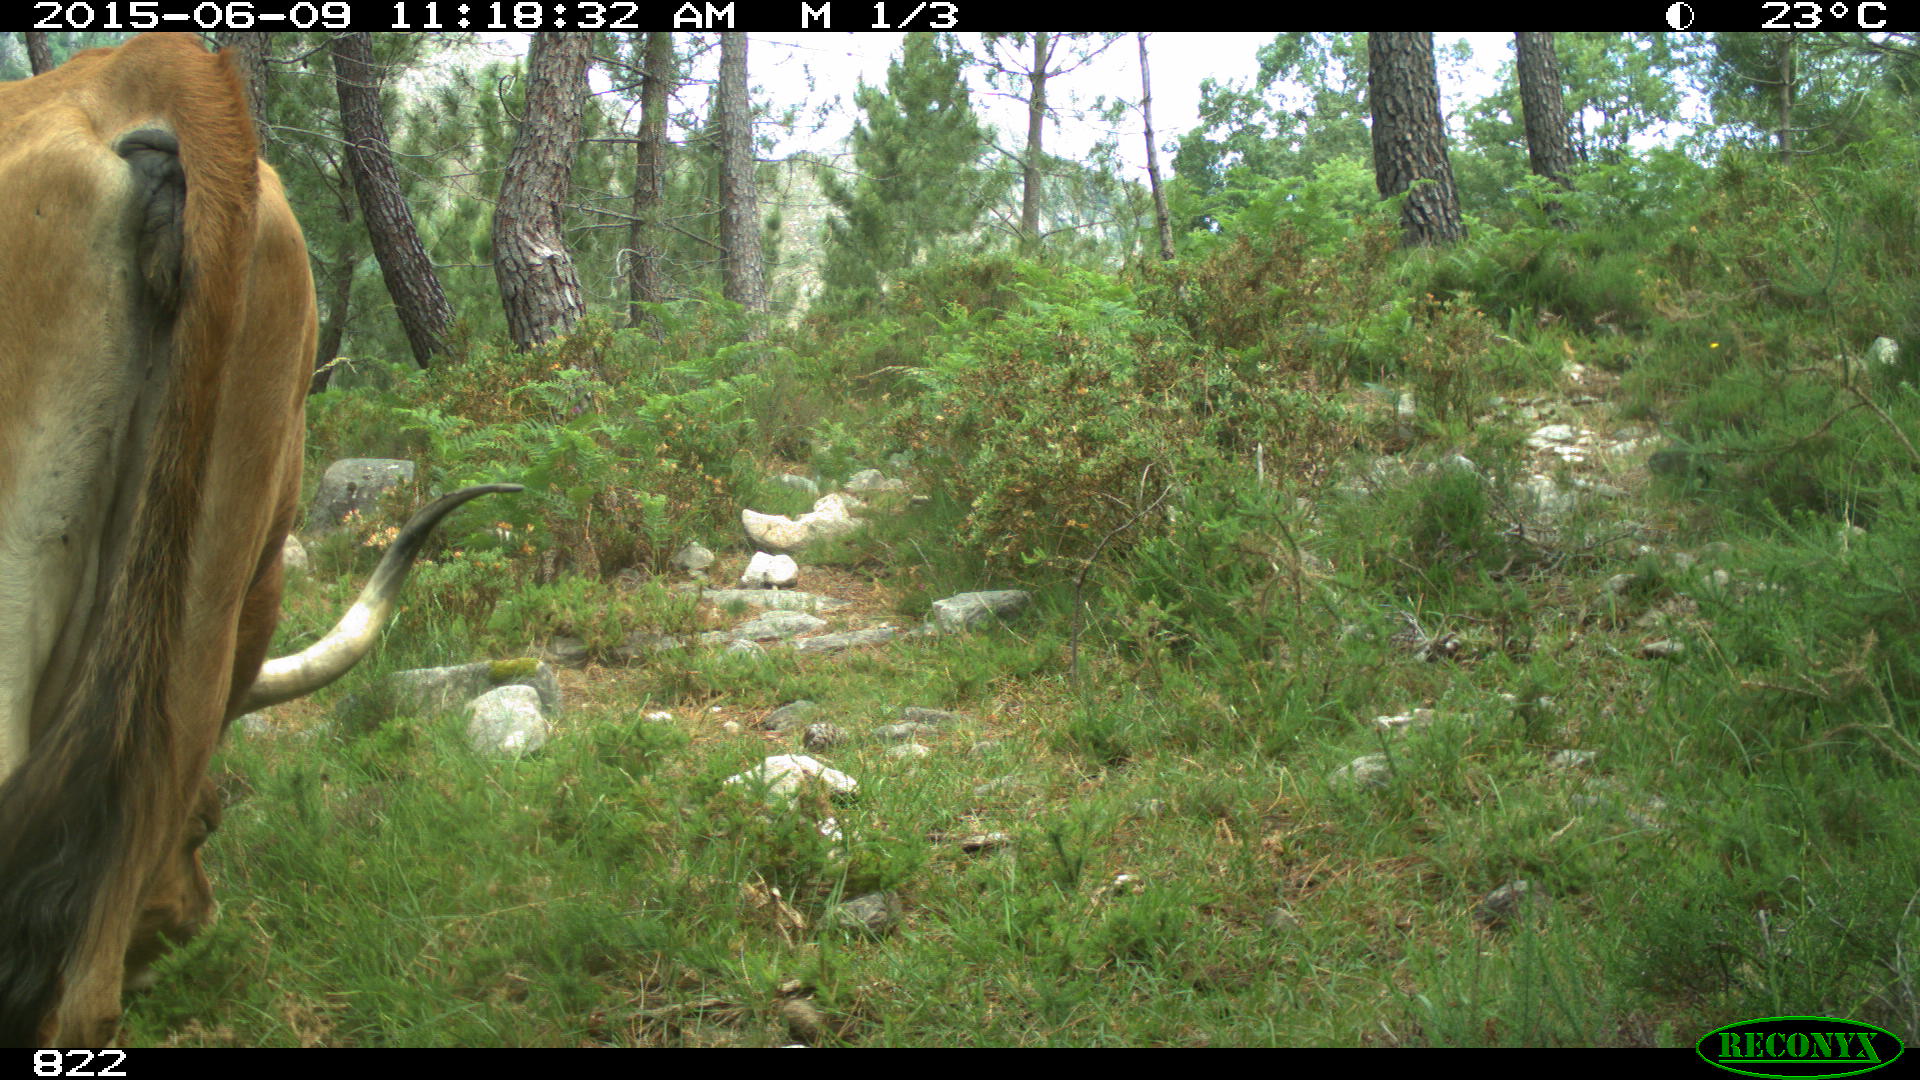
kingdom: Animalia
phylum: Chordata
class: Mammalia
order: Artiodactyla
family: Bovidae
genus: Bos
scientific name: Bos taurus
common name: Domesticated cattle
